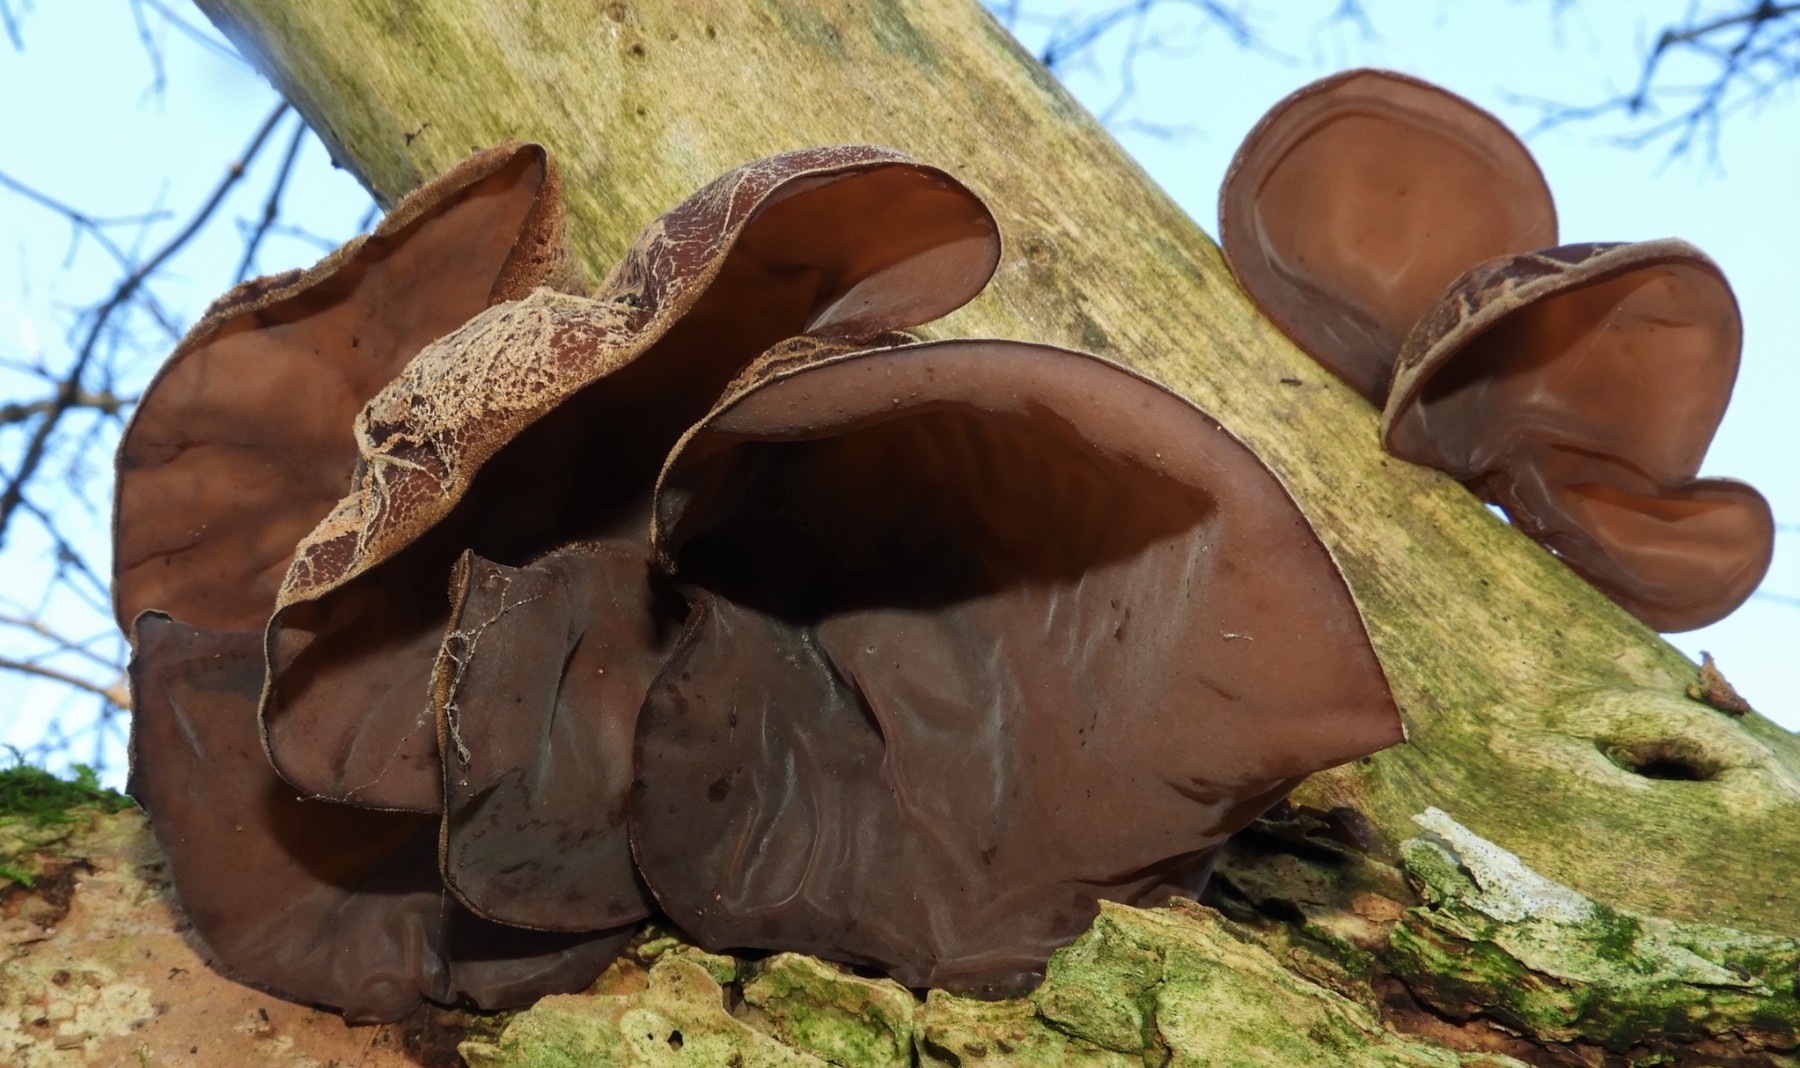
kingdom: Fungi
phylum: Basidiomycota
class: Agaricomycetes
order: Auriculariales
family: Auriculariaceae
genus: Auricularia
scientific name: Auricularia auricula-judae
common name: almindelig judasøre
